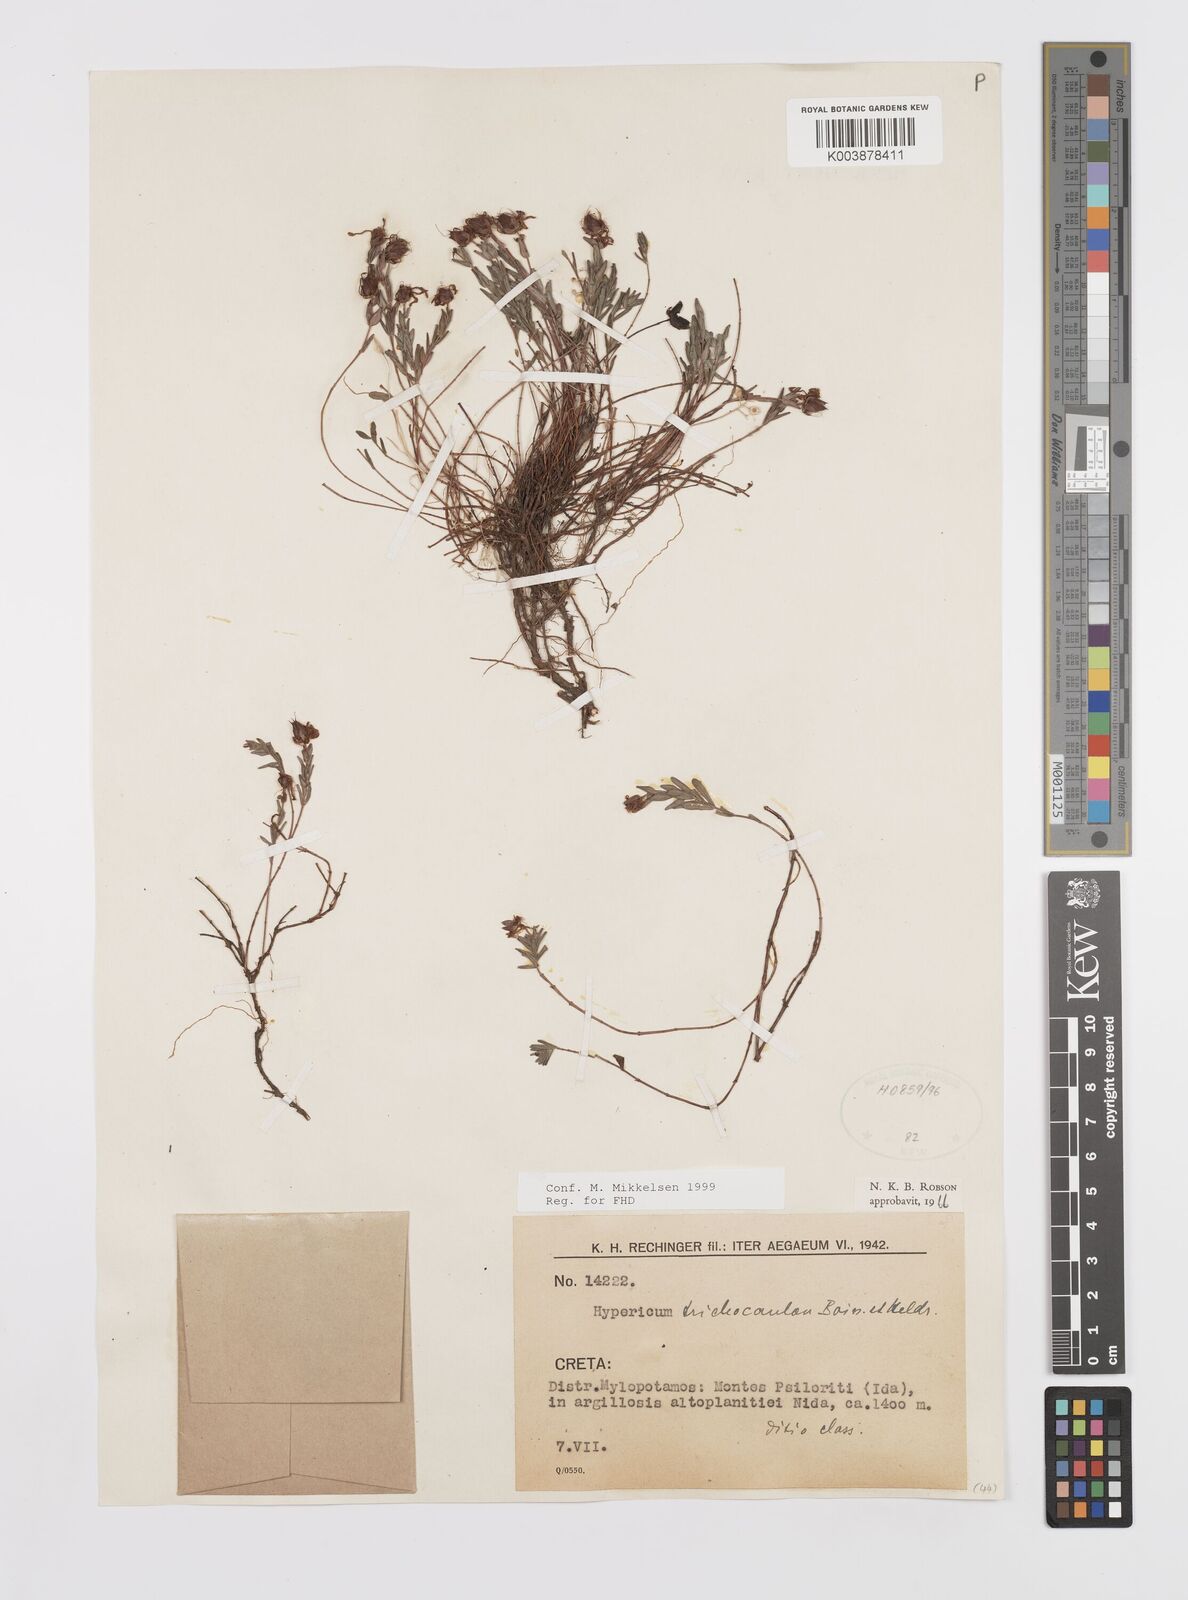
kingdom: Plantae
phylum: Tracheophyta
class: Magnoliopsida
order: Malpighiales
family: Hypericaceae
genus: Hypericum
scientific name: Hypericum trichocaulon
